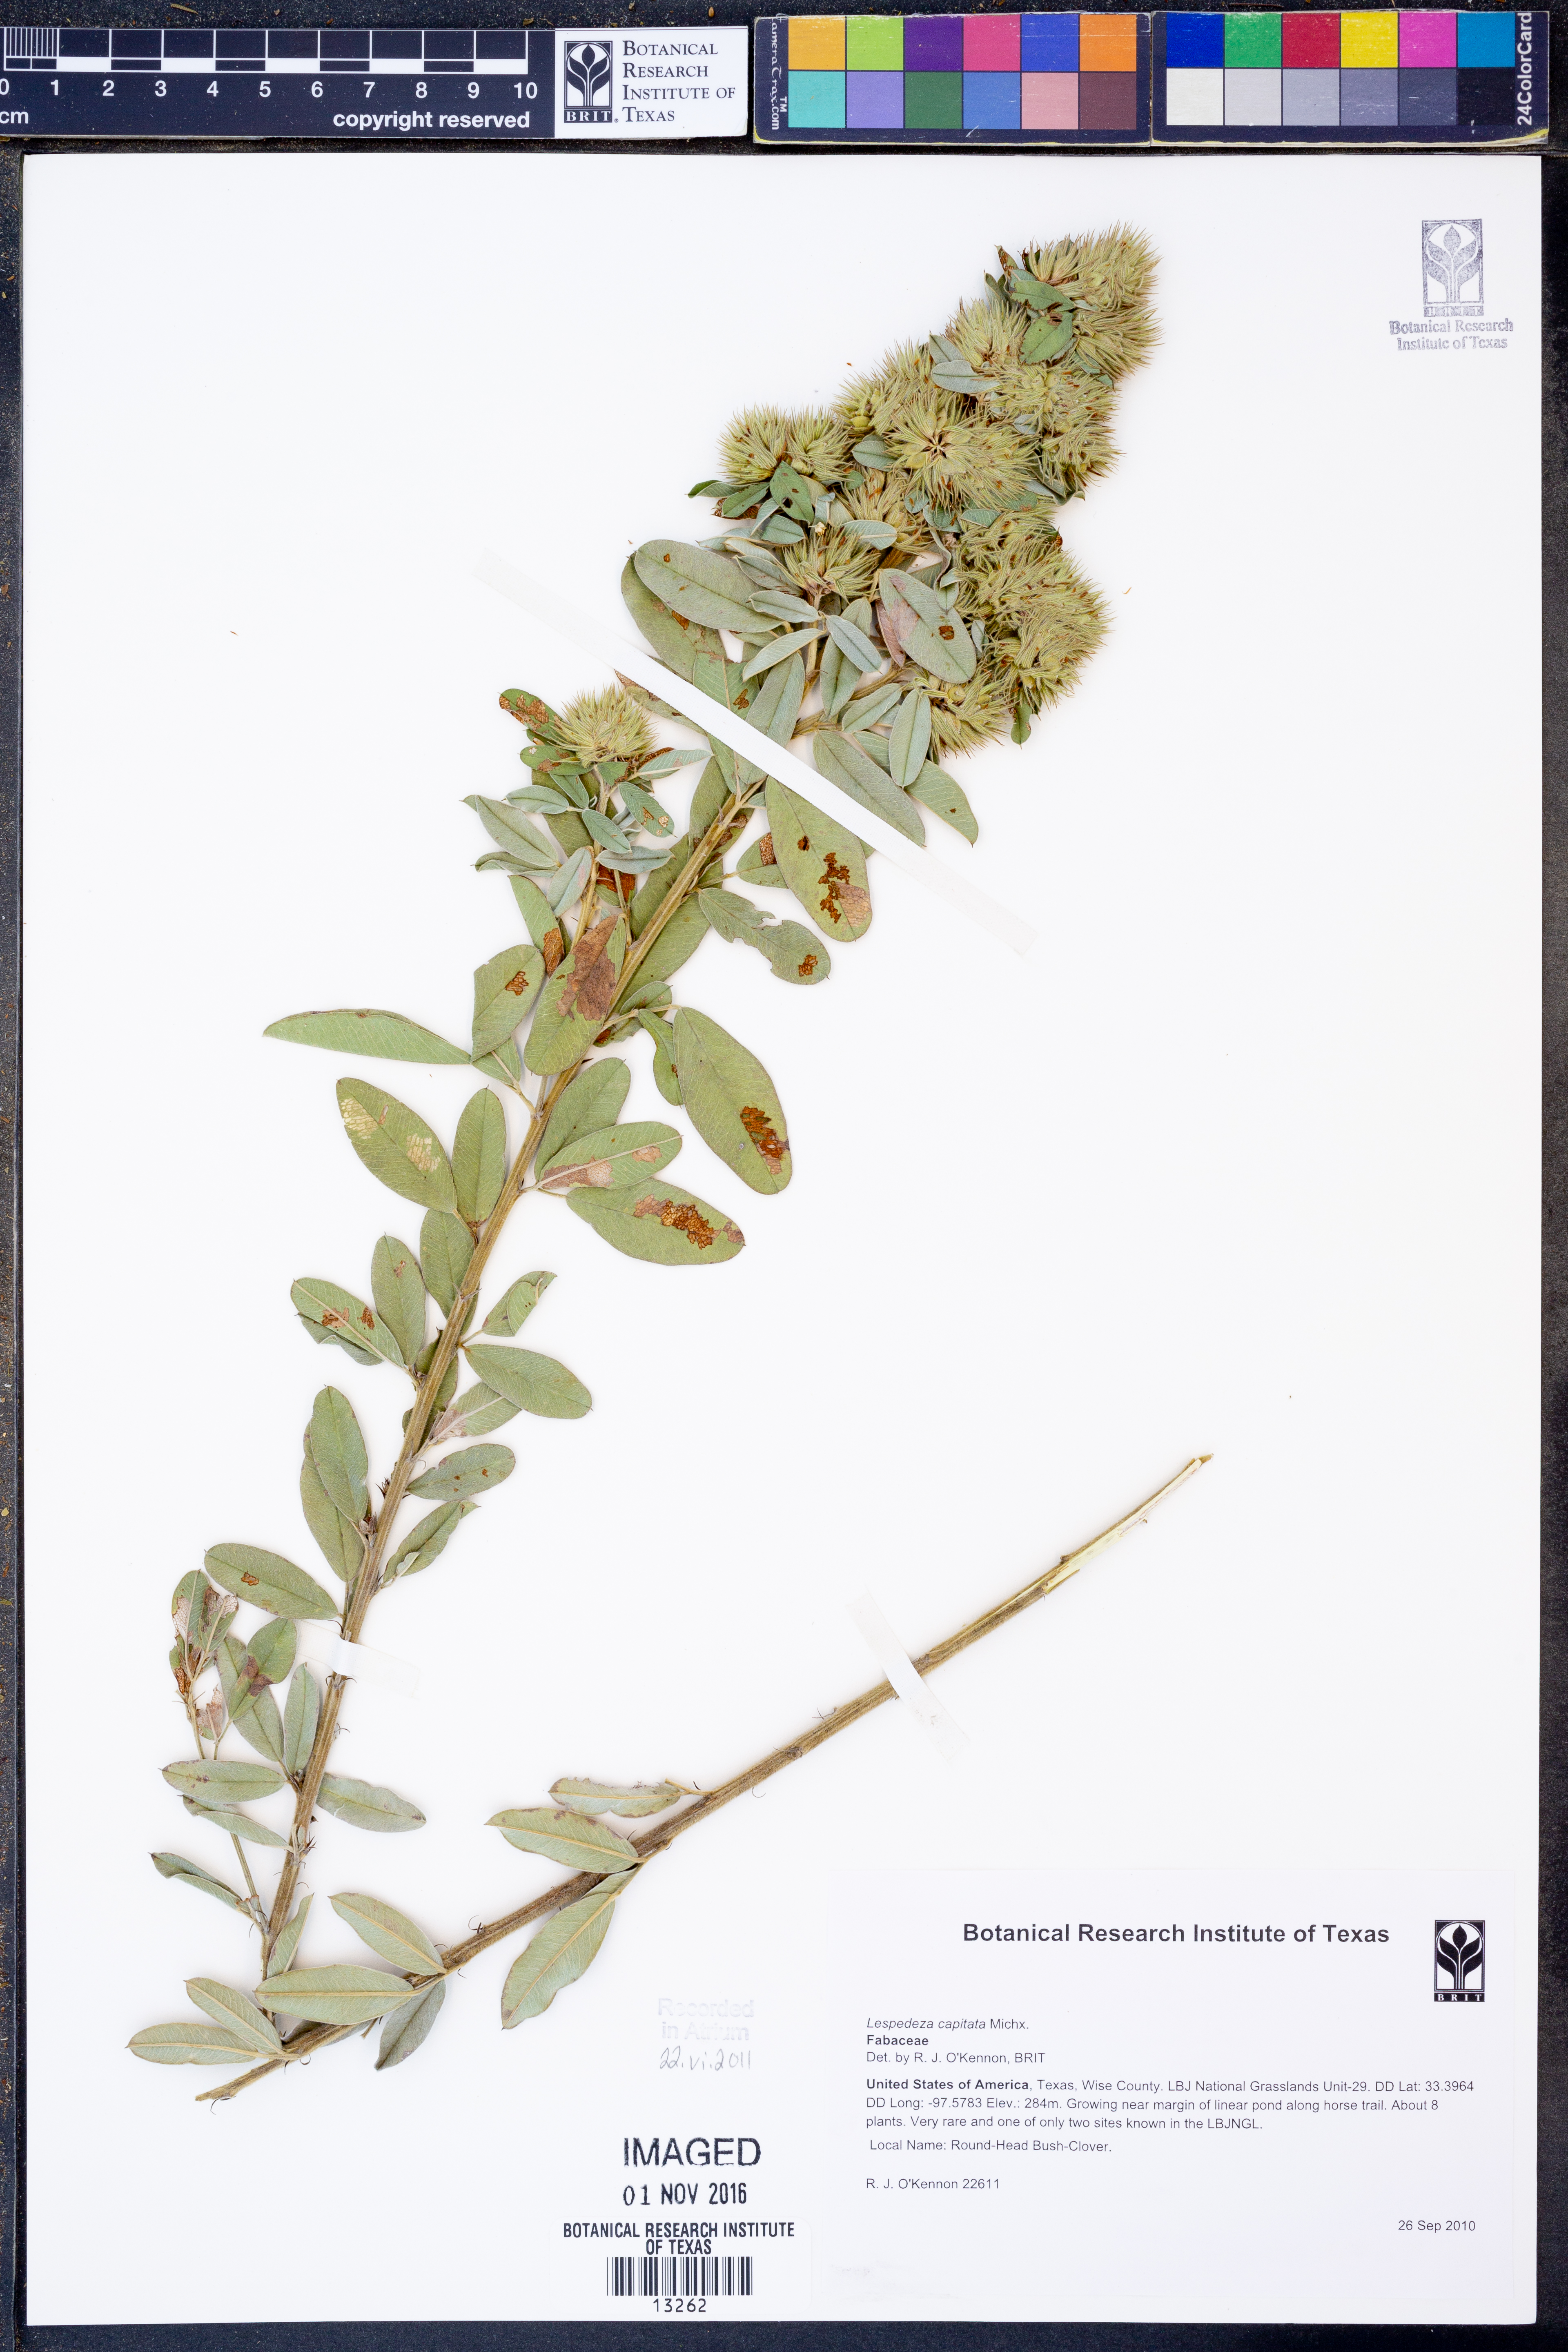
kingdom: Plantae
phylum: Tracheophyta
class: Magnoliopsida
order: Fabales
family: Fabaceae
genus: Lespedeza
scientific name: Lespedeza capitata
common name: Dusty clover
